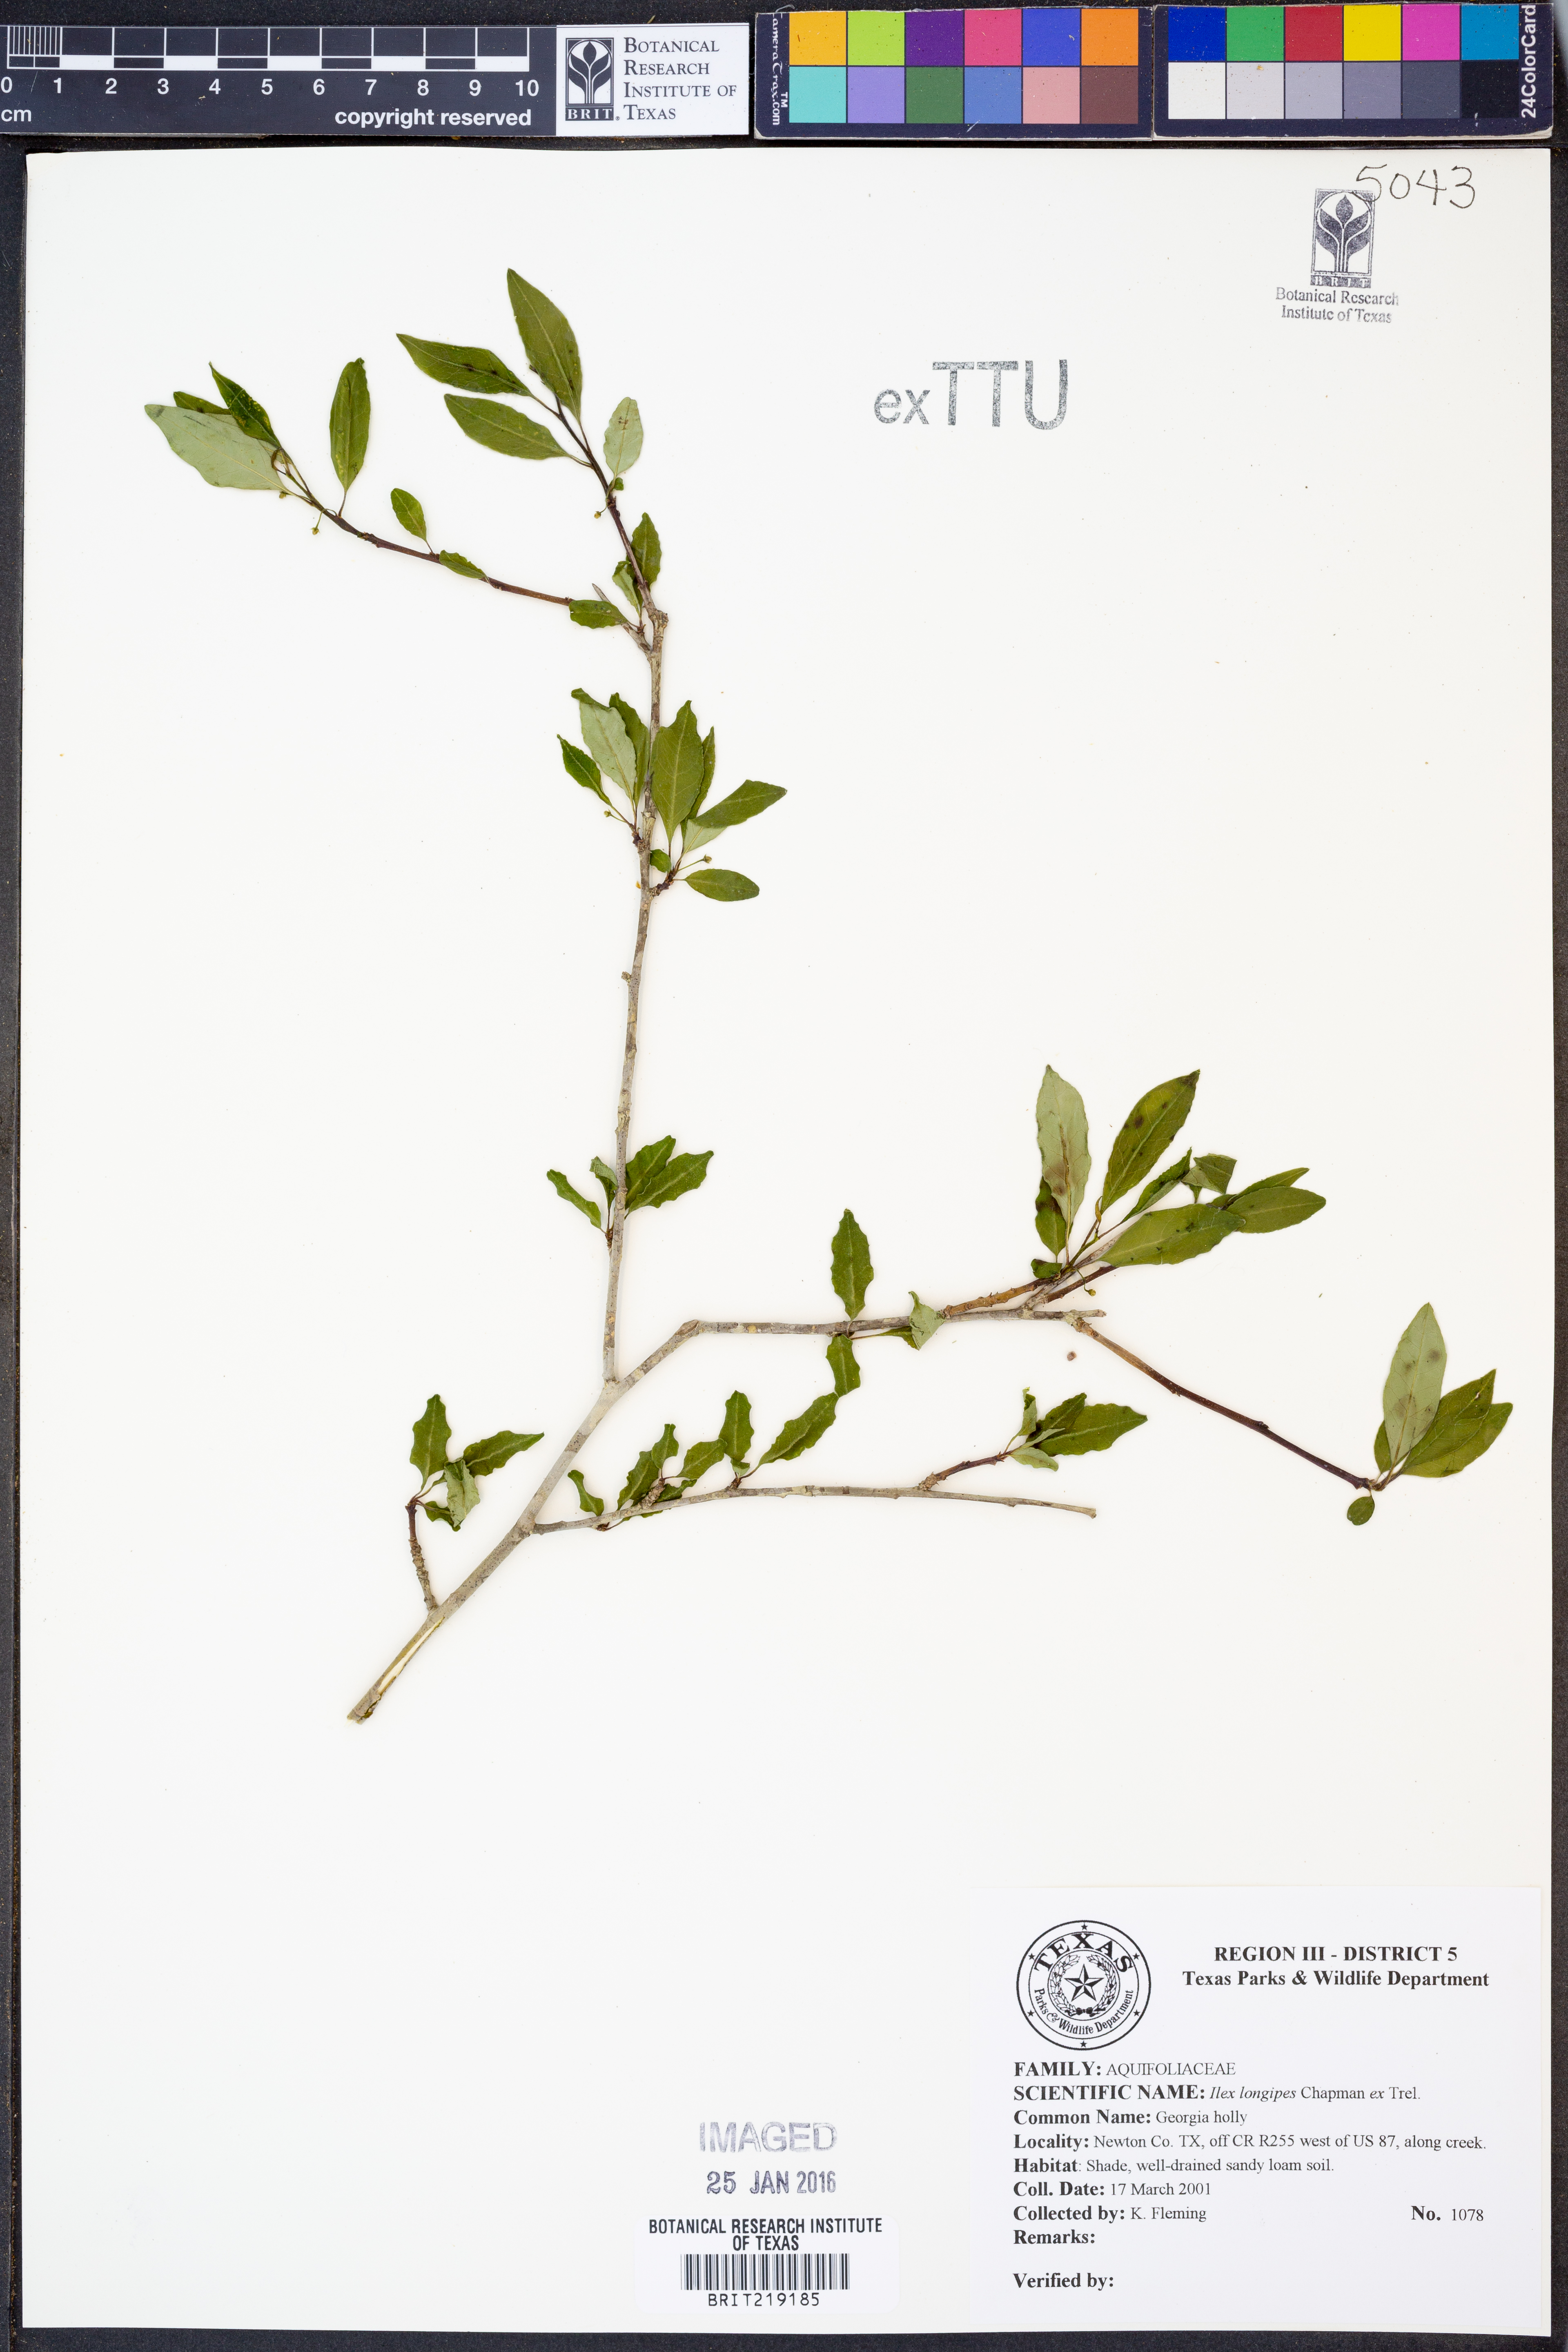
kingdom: Plantae
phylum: Tracheophyta
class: Magnoliopsida
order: Aquifoliales
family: Aquifoliaceae
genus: Ilex
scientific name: Ilex longipes
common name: Georgia holly
